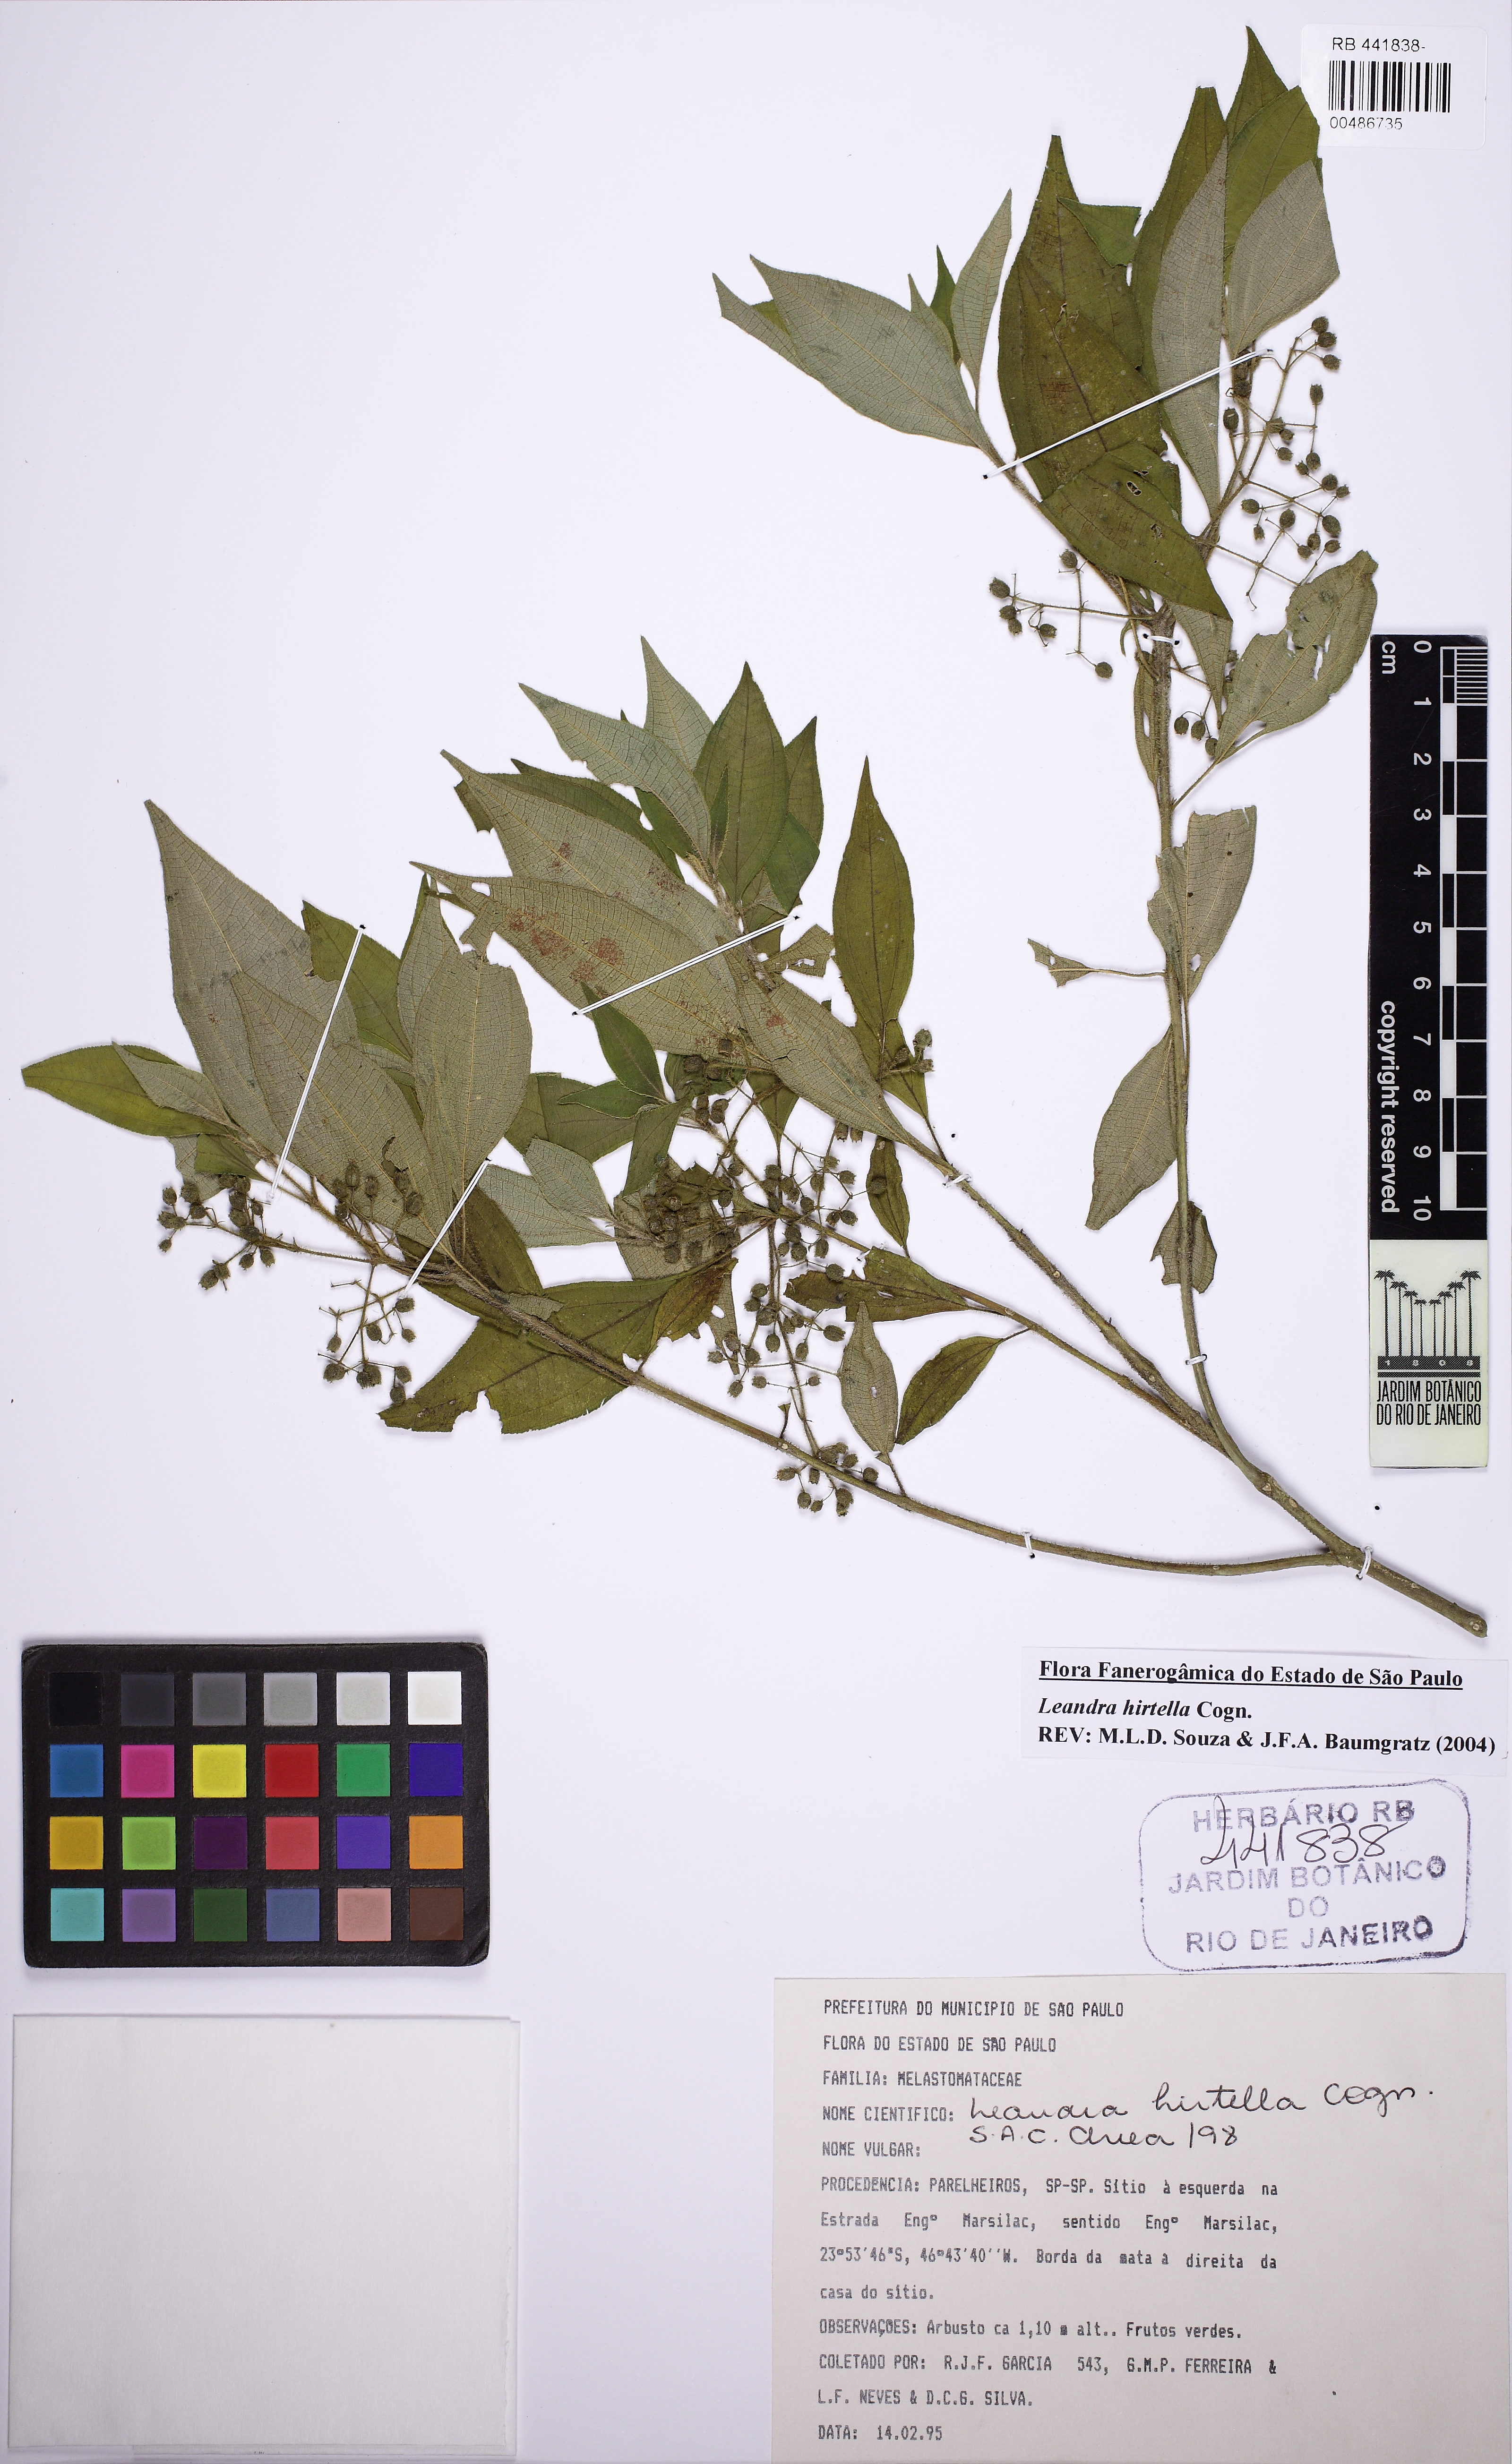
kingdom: Plantae
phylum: Tracheophyta
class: Magnoliopsida
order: Myrtales
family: Melastomataceae
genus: Miconia
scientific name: Miconia leahirtella
